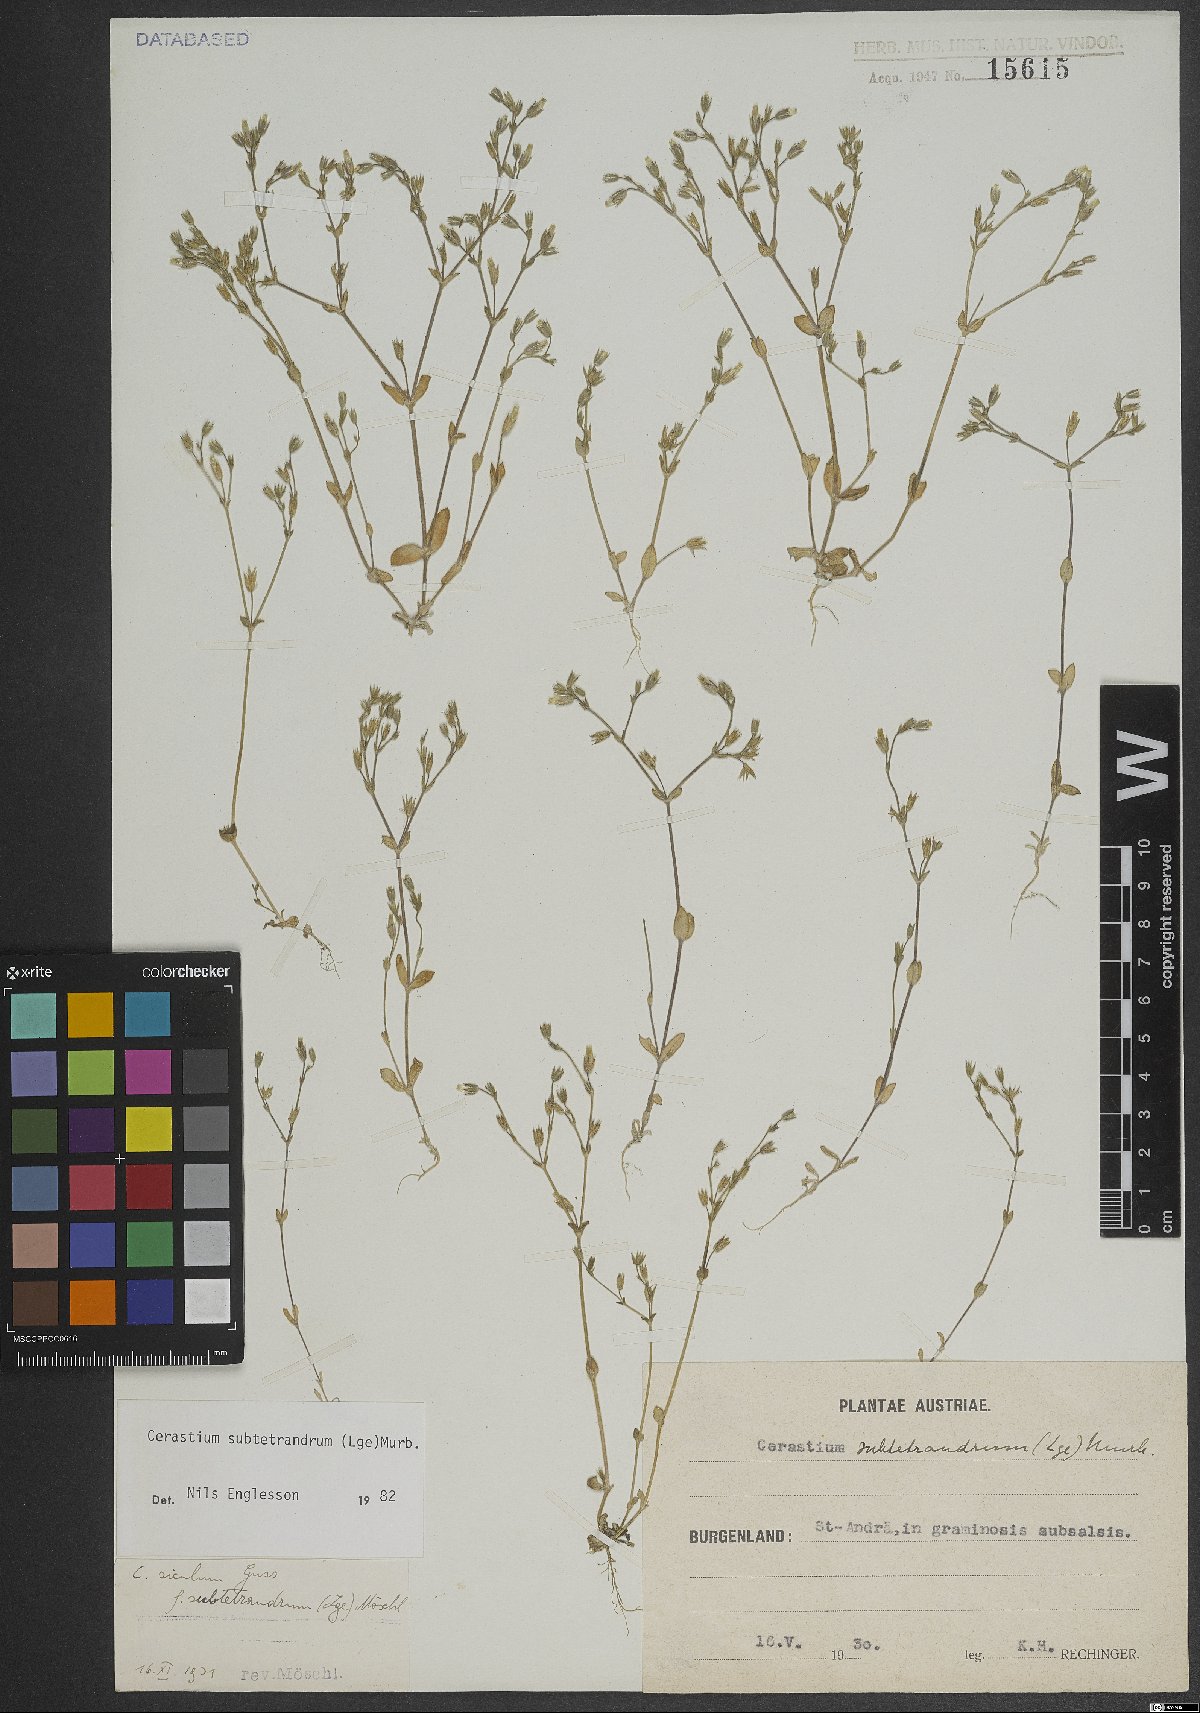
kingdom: Plantae
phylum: Tracheophyta
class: Magnoliopsida
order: Caryophyllales
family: Caryophyllaceae
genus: Cerastium
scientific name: Cerastium subtetrandrum
